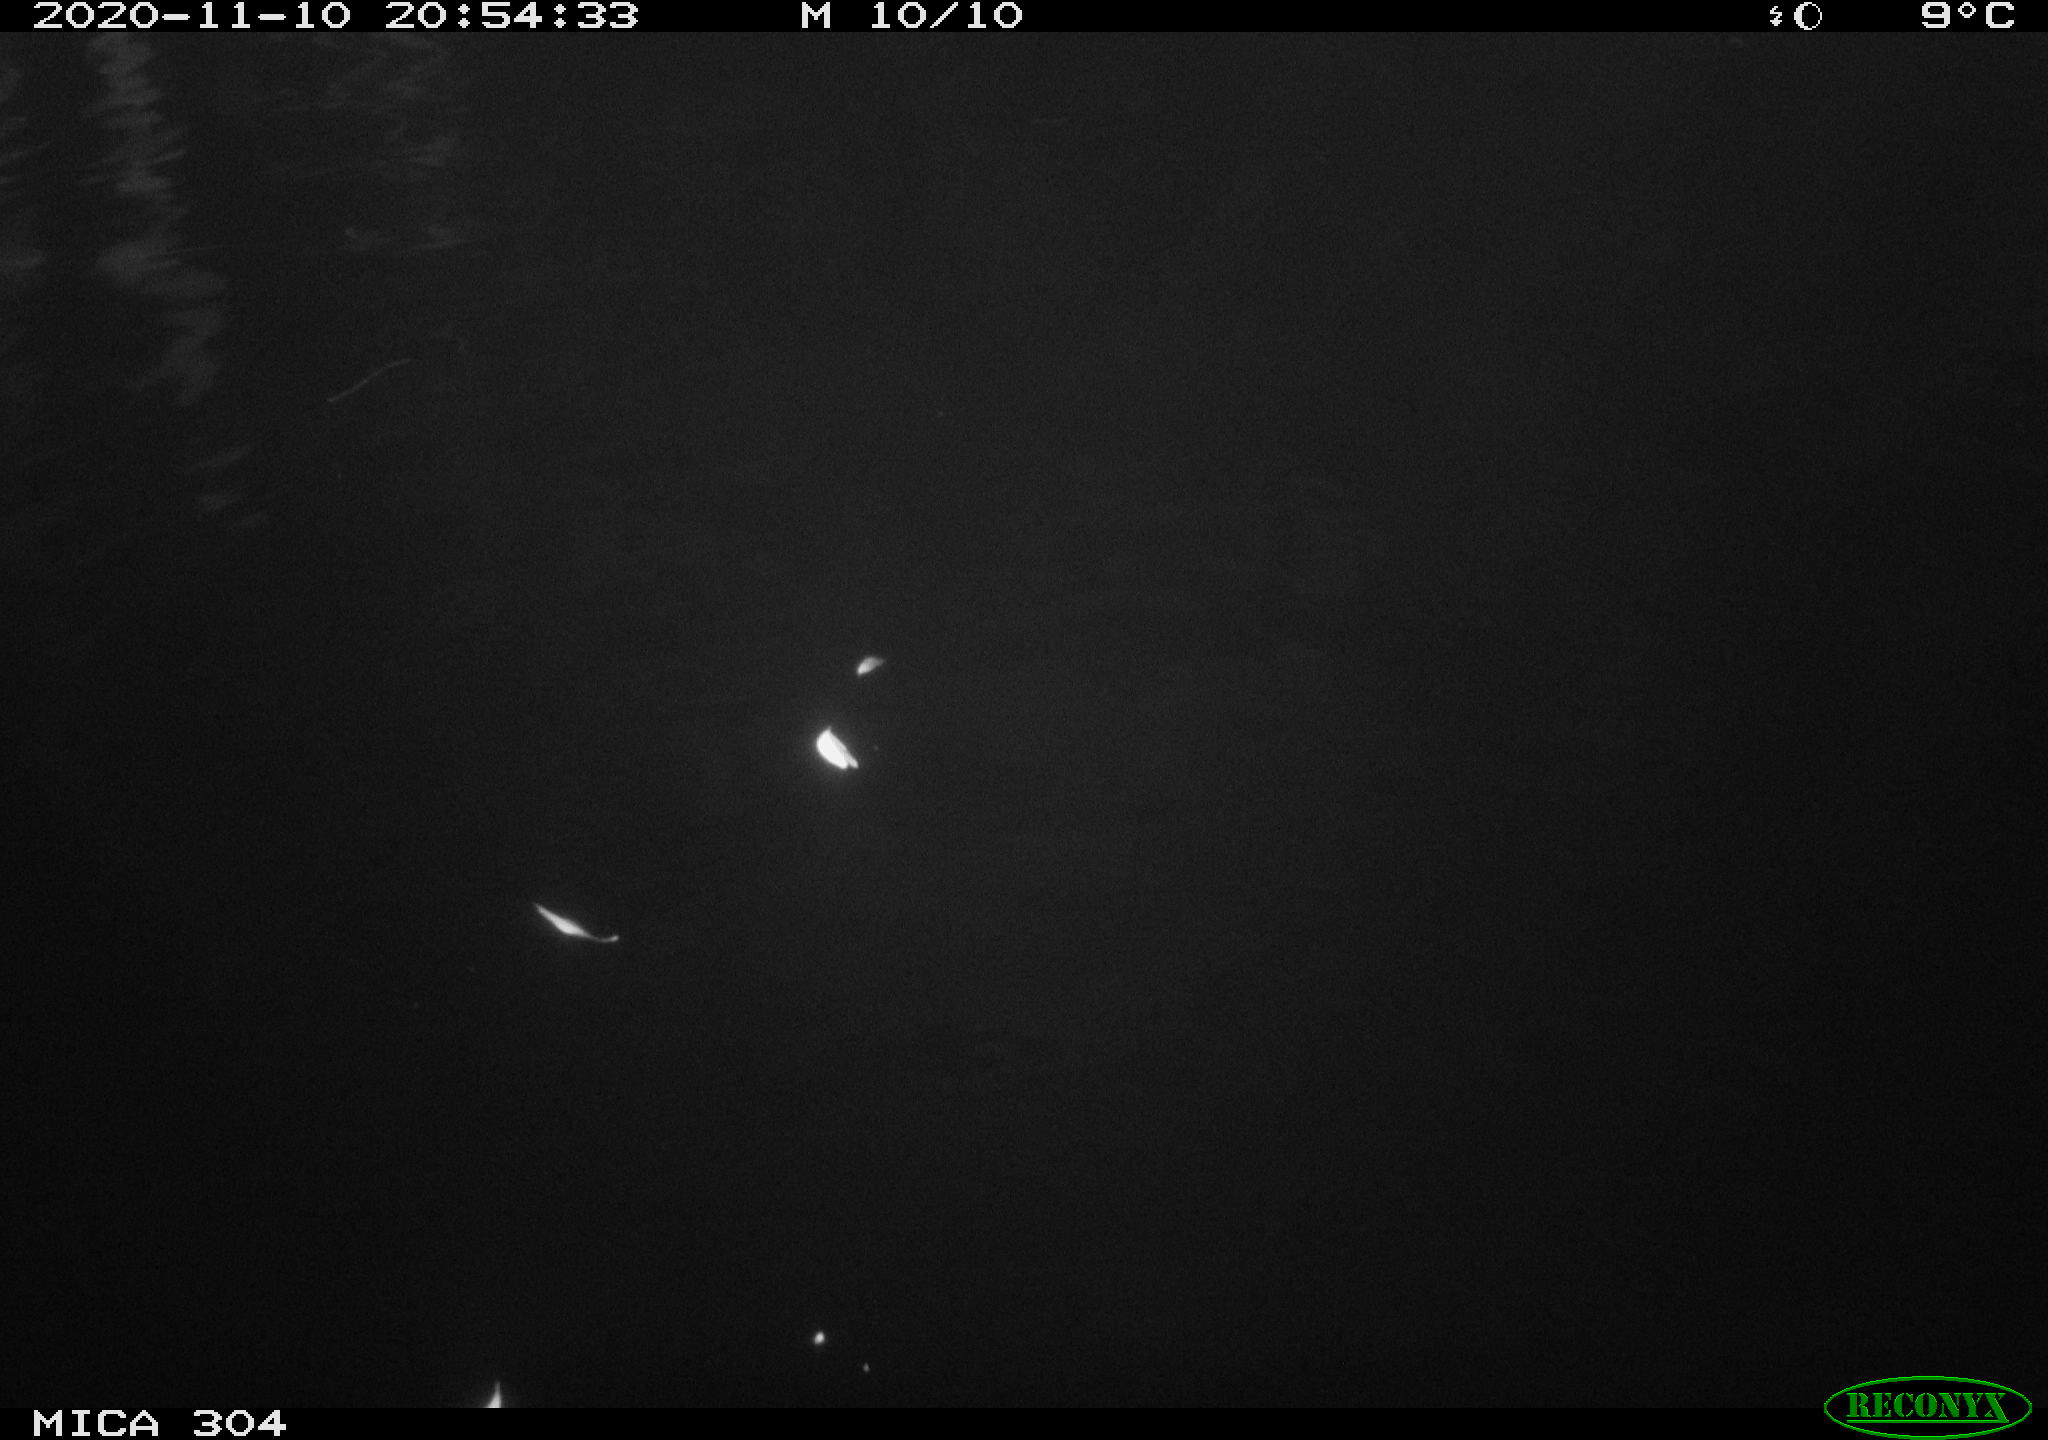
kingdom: Animalia
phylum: Chordata
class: Mammalia
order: Rodentia
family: Cricetidae
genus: Ondatra
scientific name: Ondatra zibethicus
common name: Muskrat
